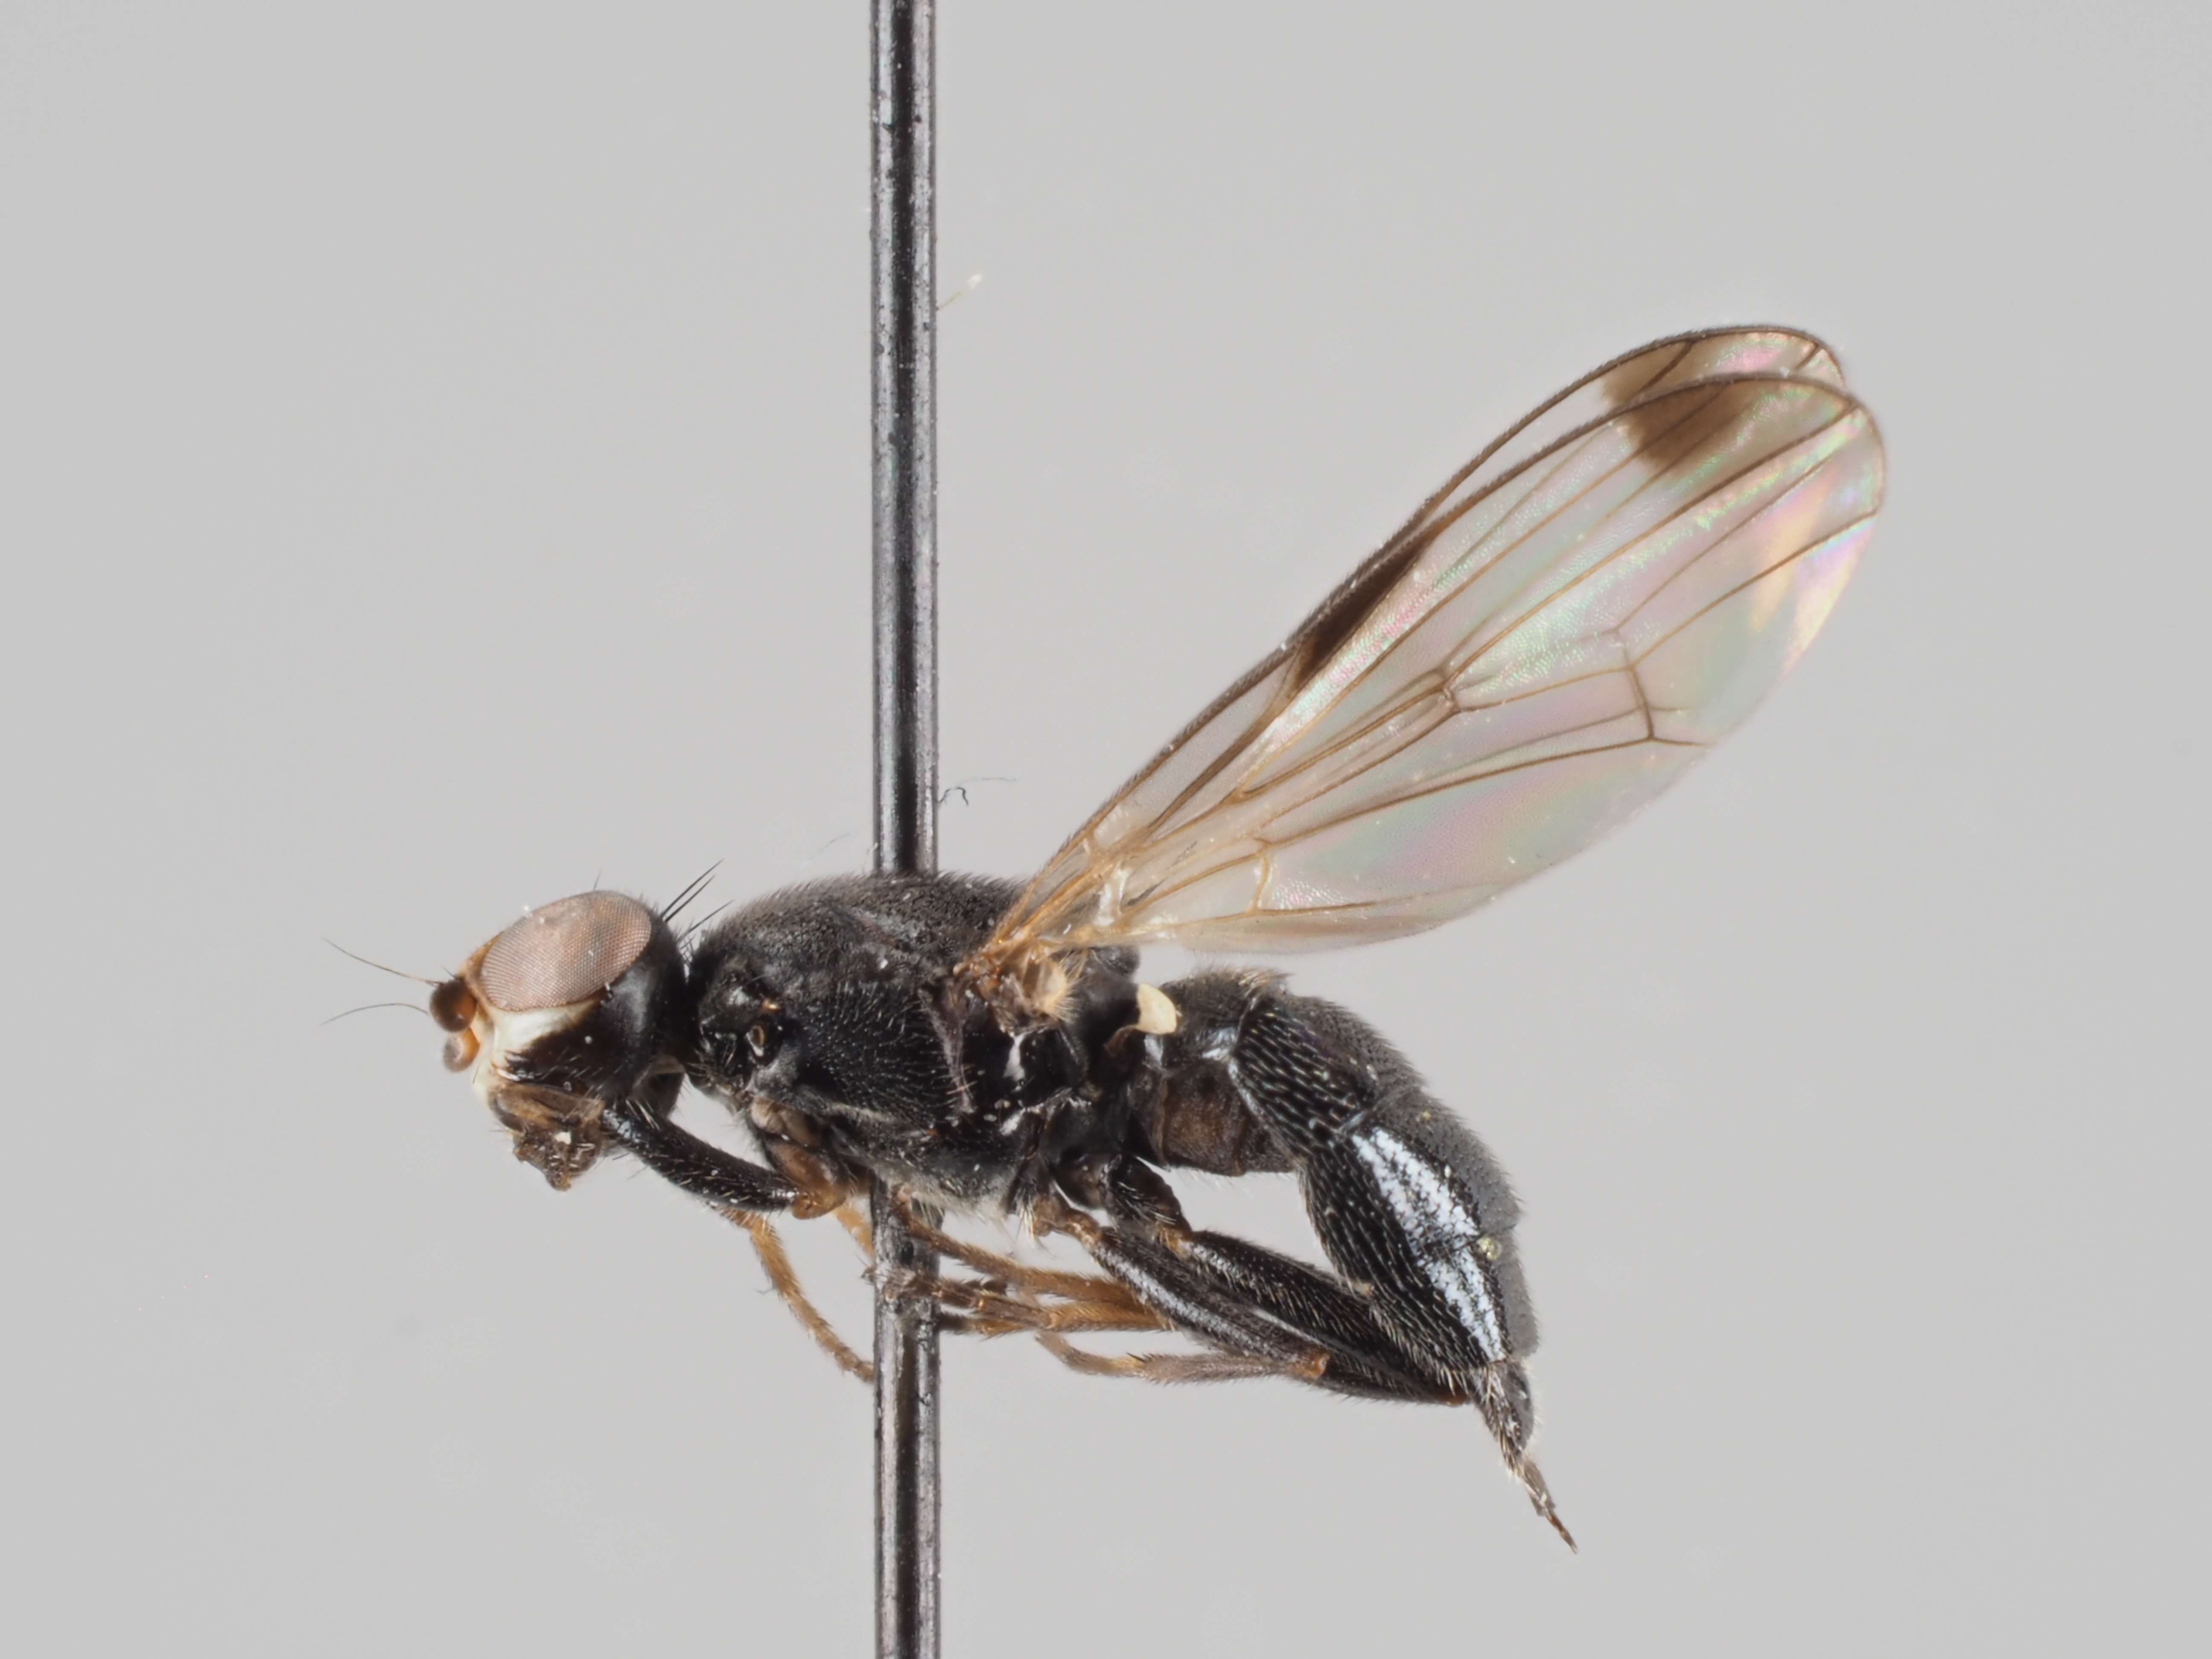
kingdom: Animalia
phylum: Arthropoda
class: Insecta
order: Diptera
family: Ulidiidae
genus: Homalocephala
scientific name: Homalocephala biumbrata
